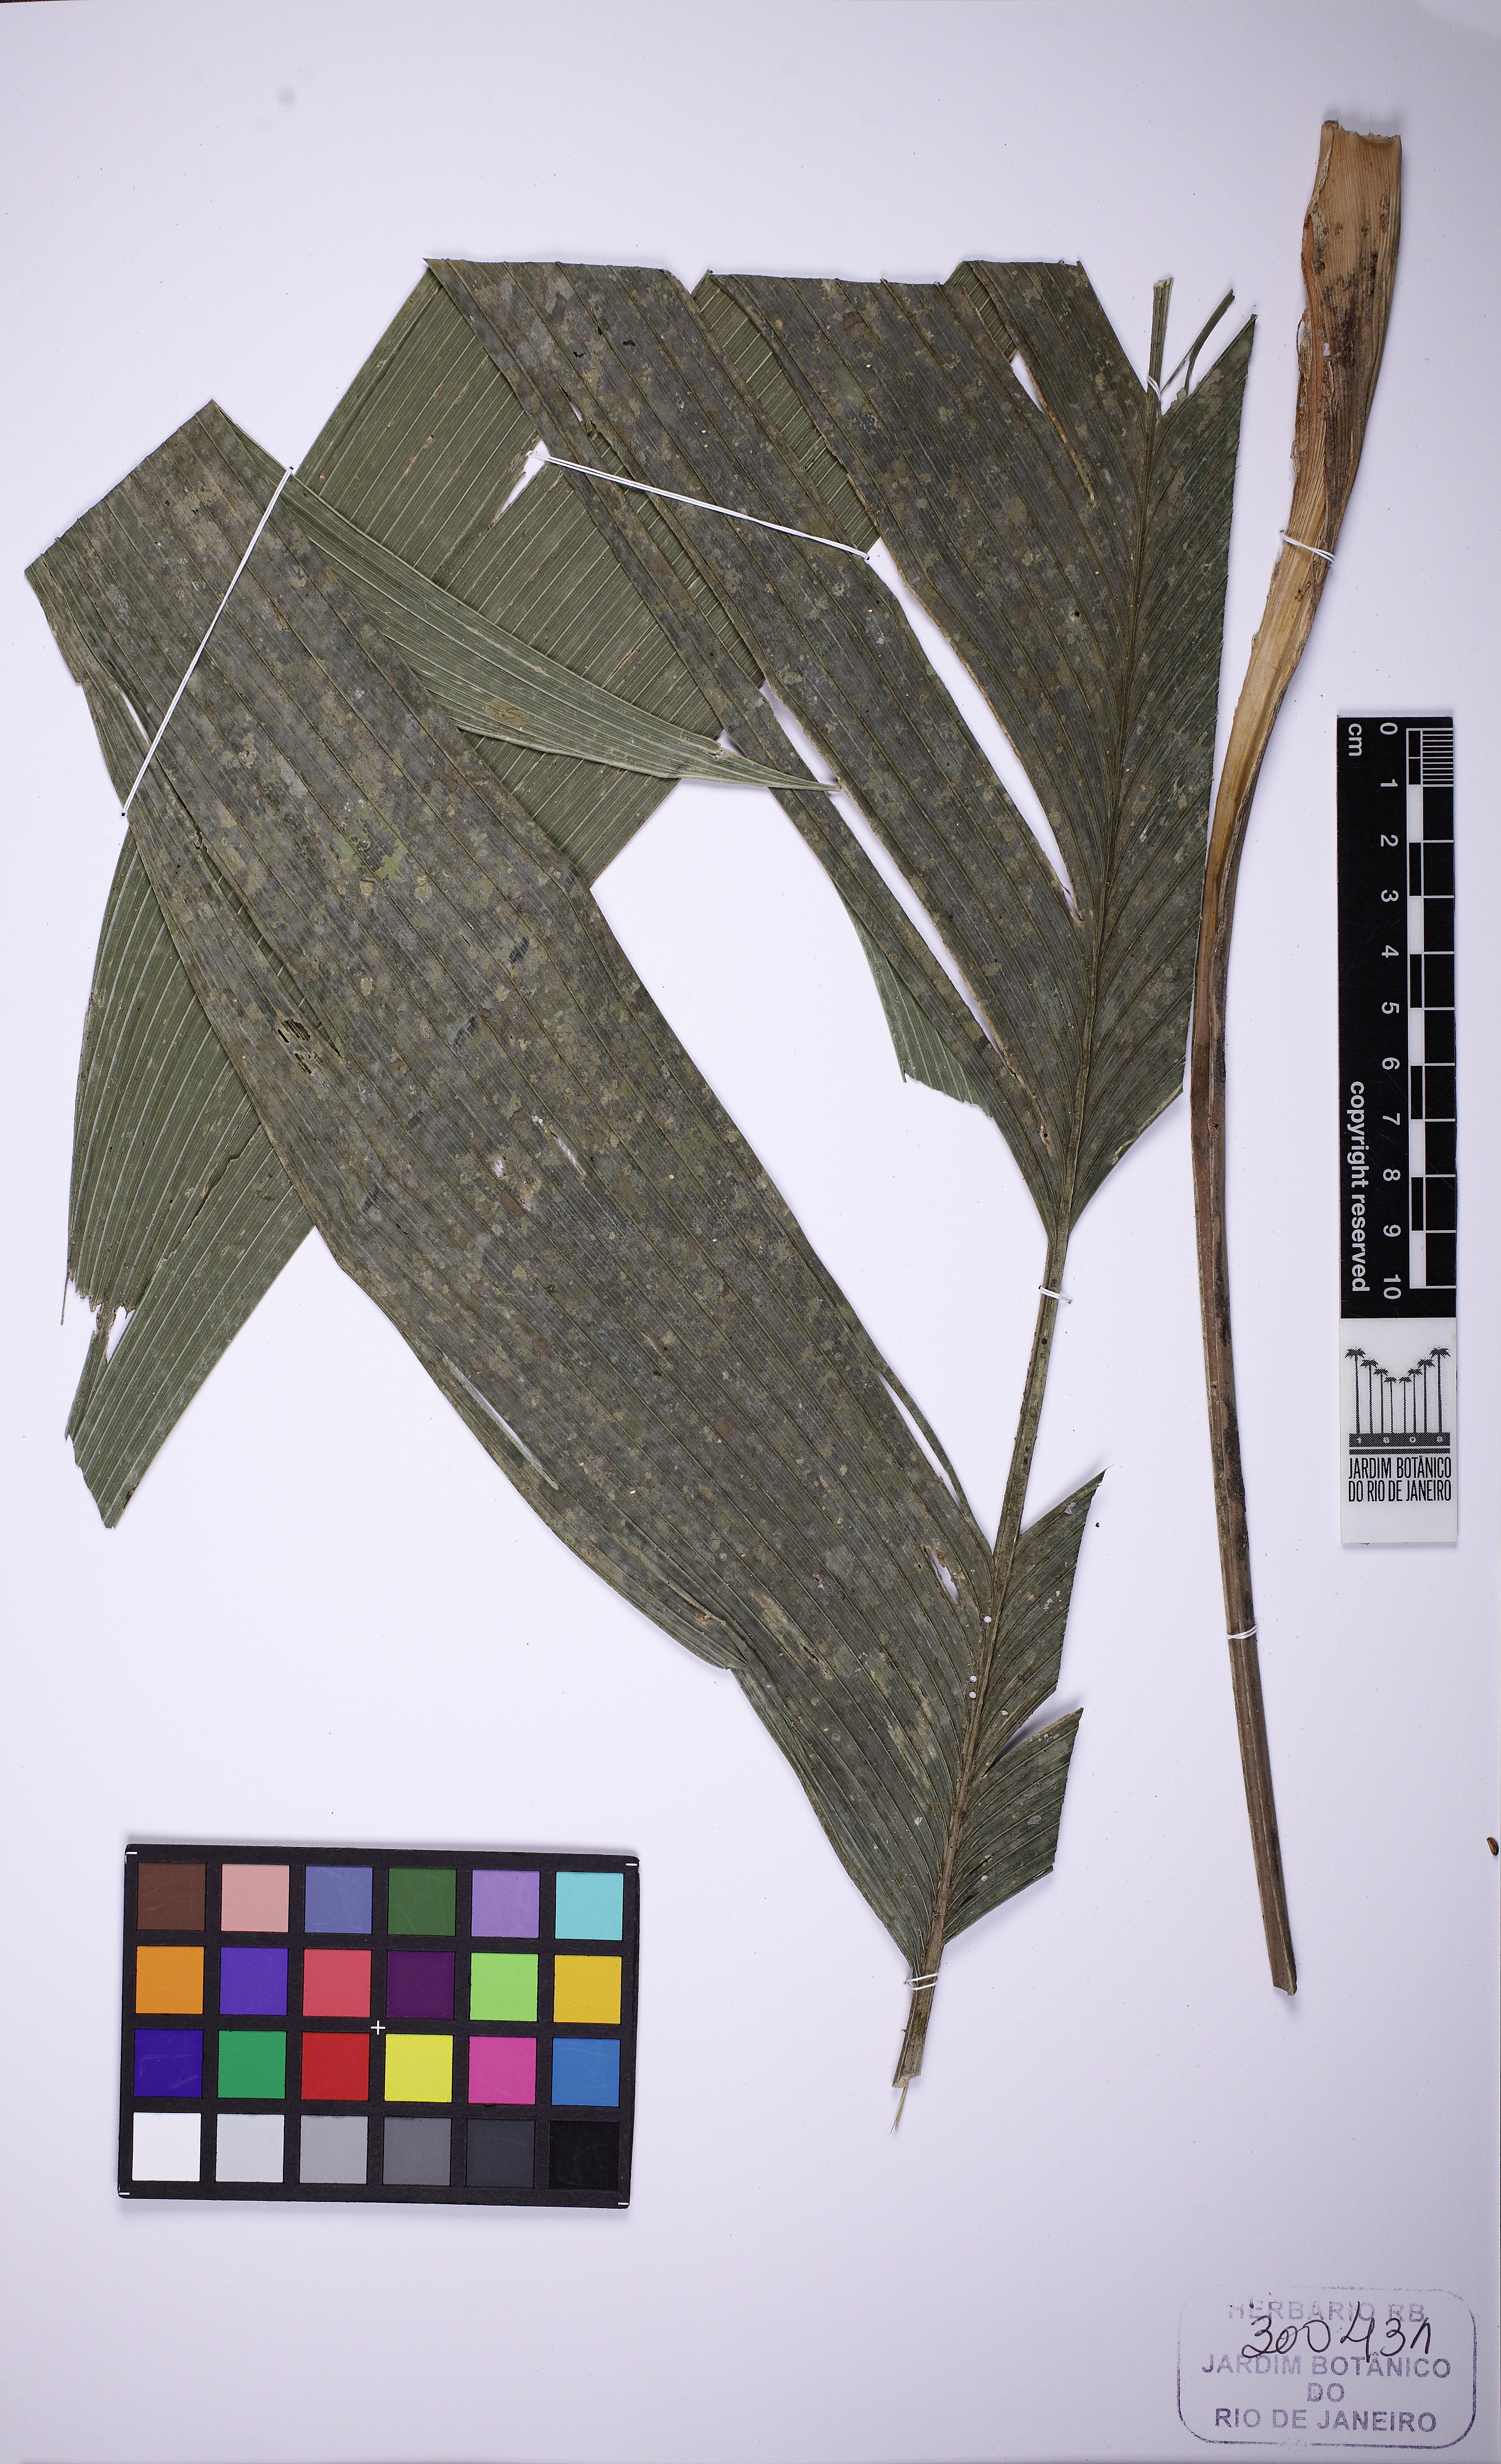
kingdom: Plantae
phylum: Tracheophyta
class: Liliopsida
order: Arecales
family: Arecaceae
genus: Geonoma
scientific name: Geonoma pohliana
